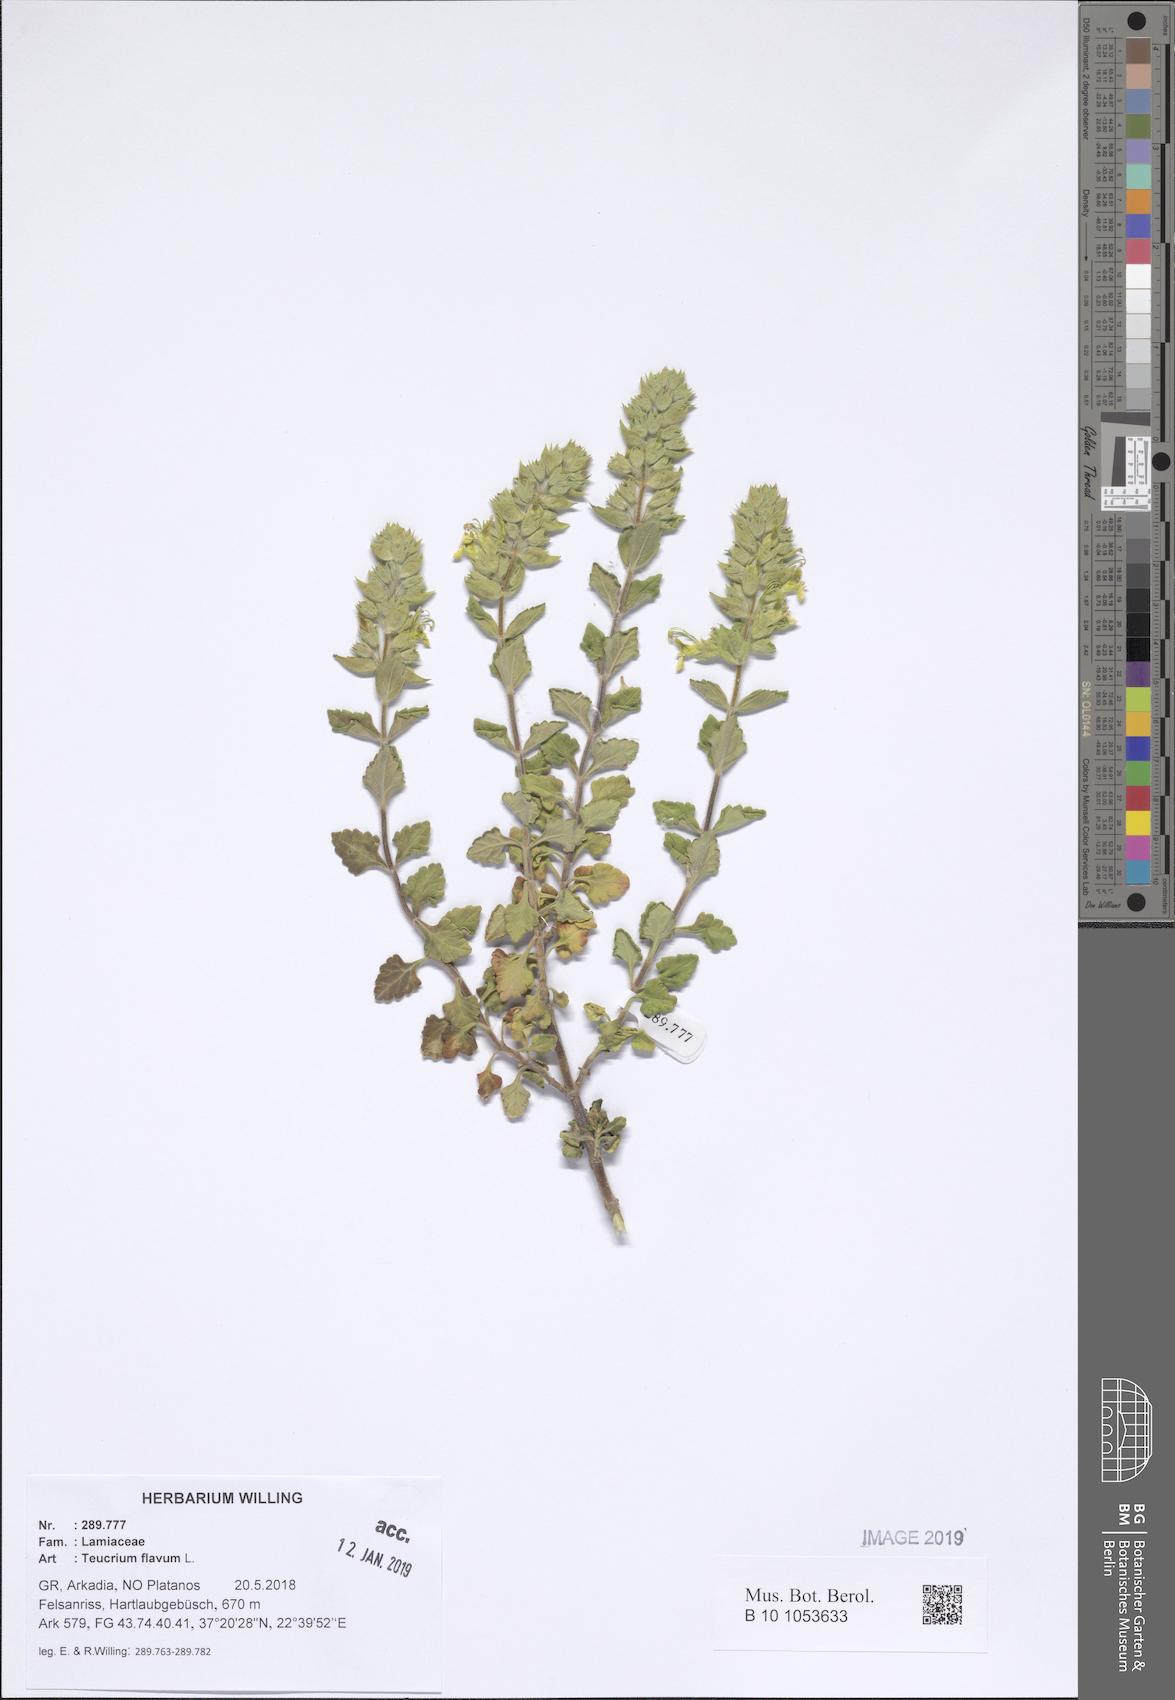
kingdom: Plantae
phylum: Tracheophyta
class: Magnoliopsida
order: Lamiales
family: Lamiaceae
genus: Teucrium
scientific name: Teucrium flavum
